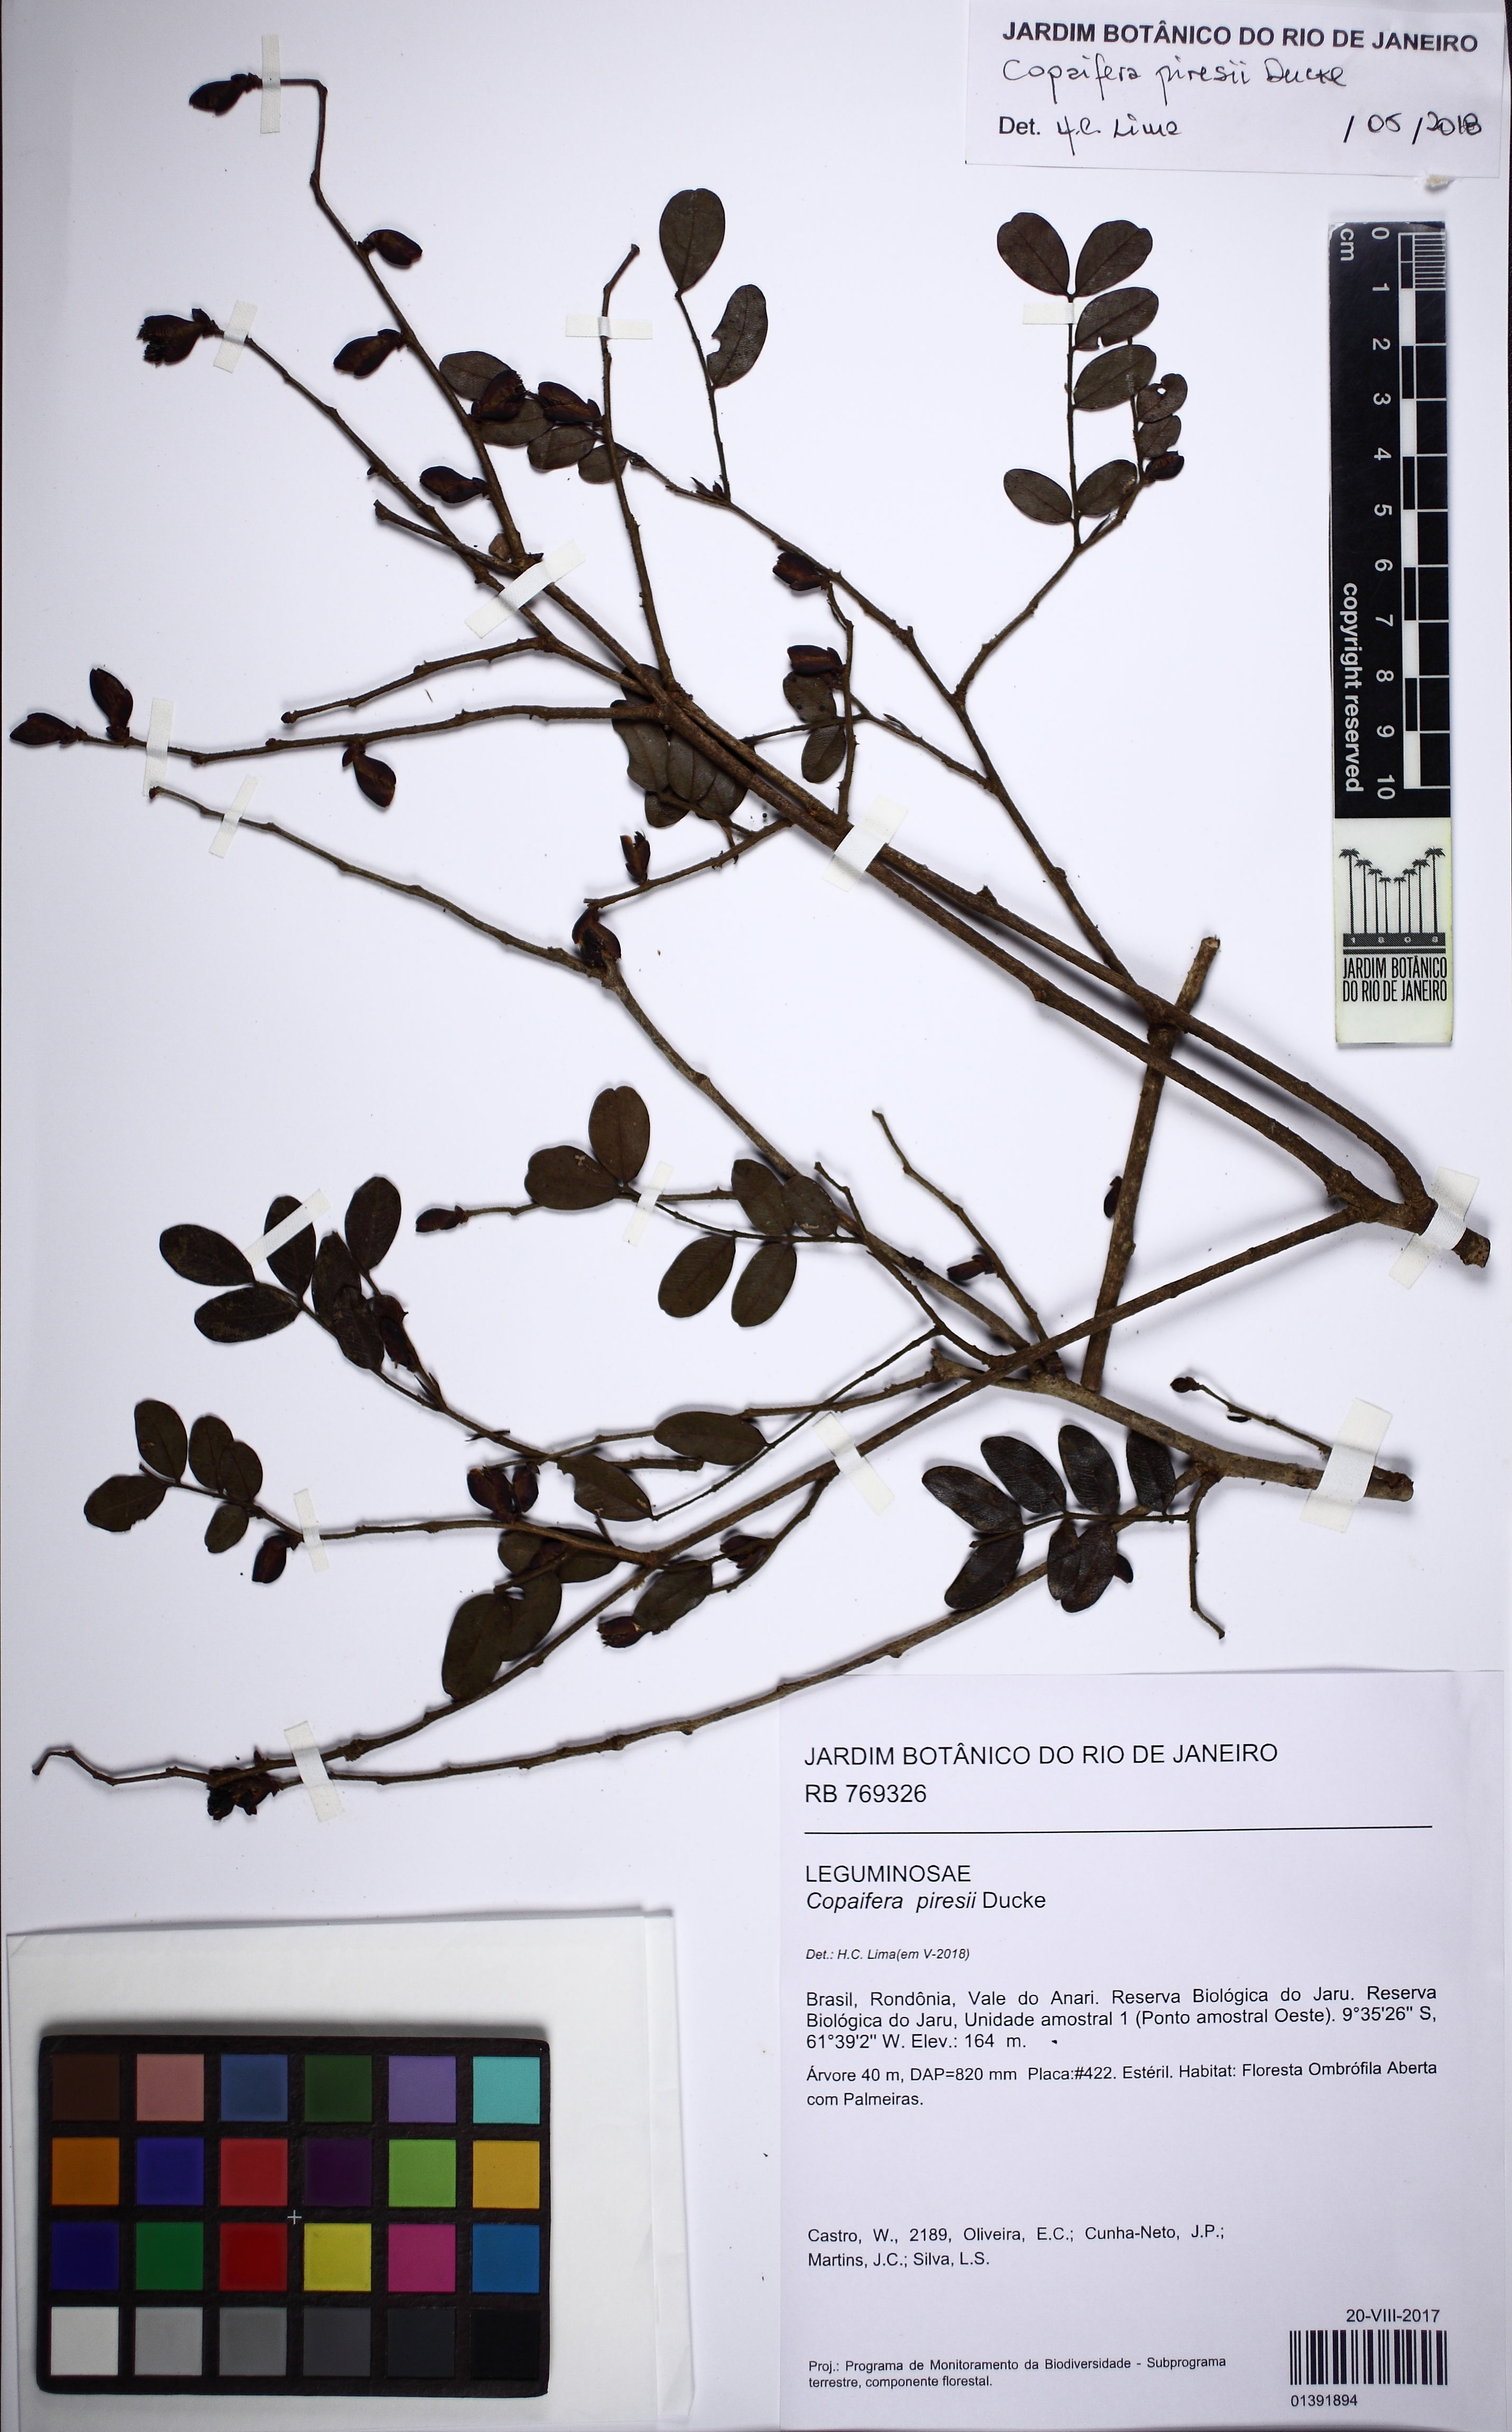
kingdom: Plantae
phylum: Tracheophyta
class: Magnoliopsida
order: Fabales
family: Fabaceae
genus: Copaifera
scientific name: Copaifera piresii
